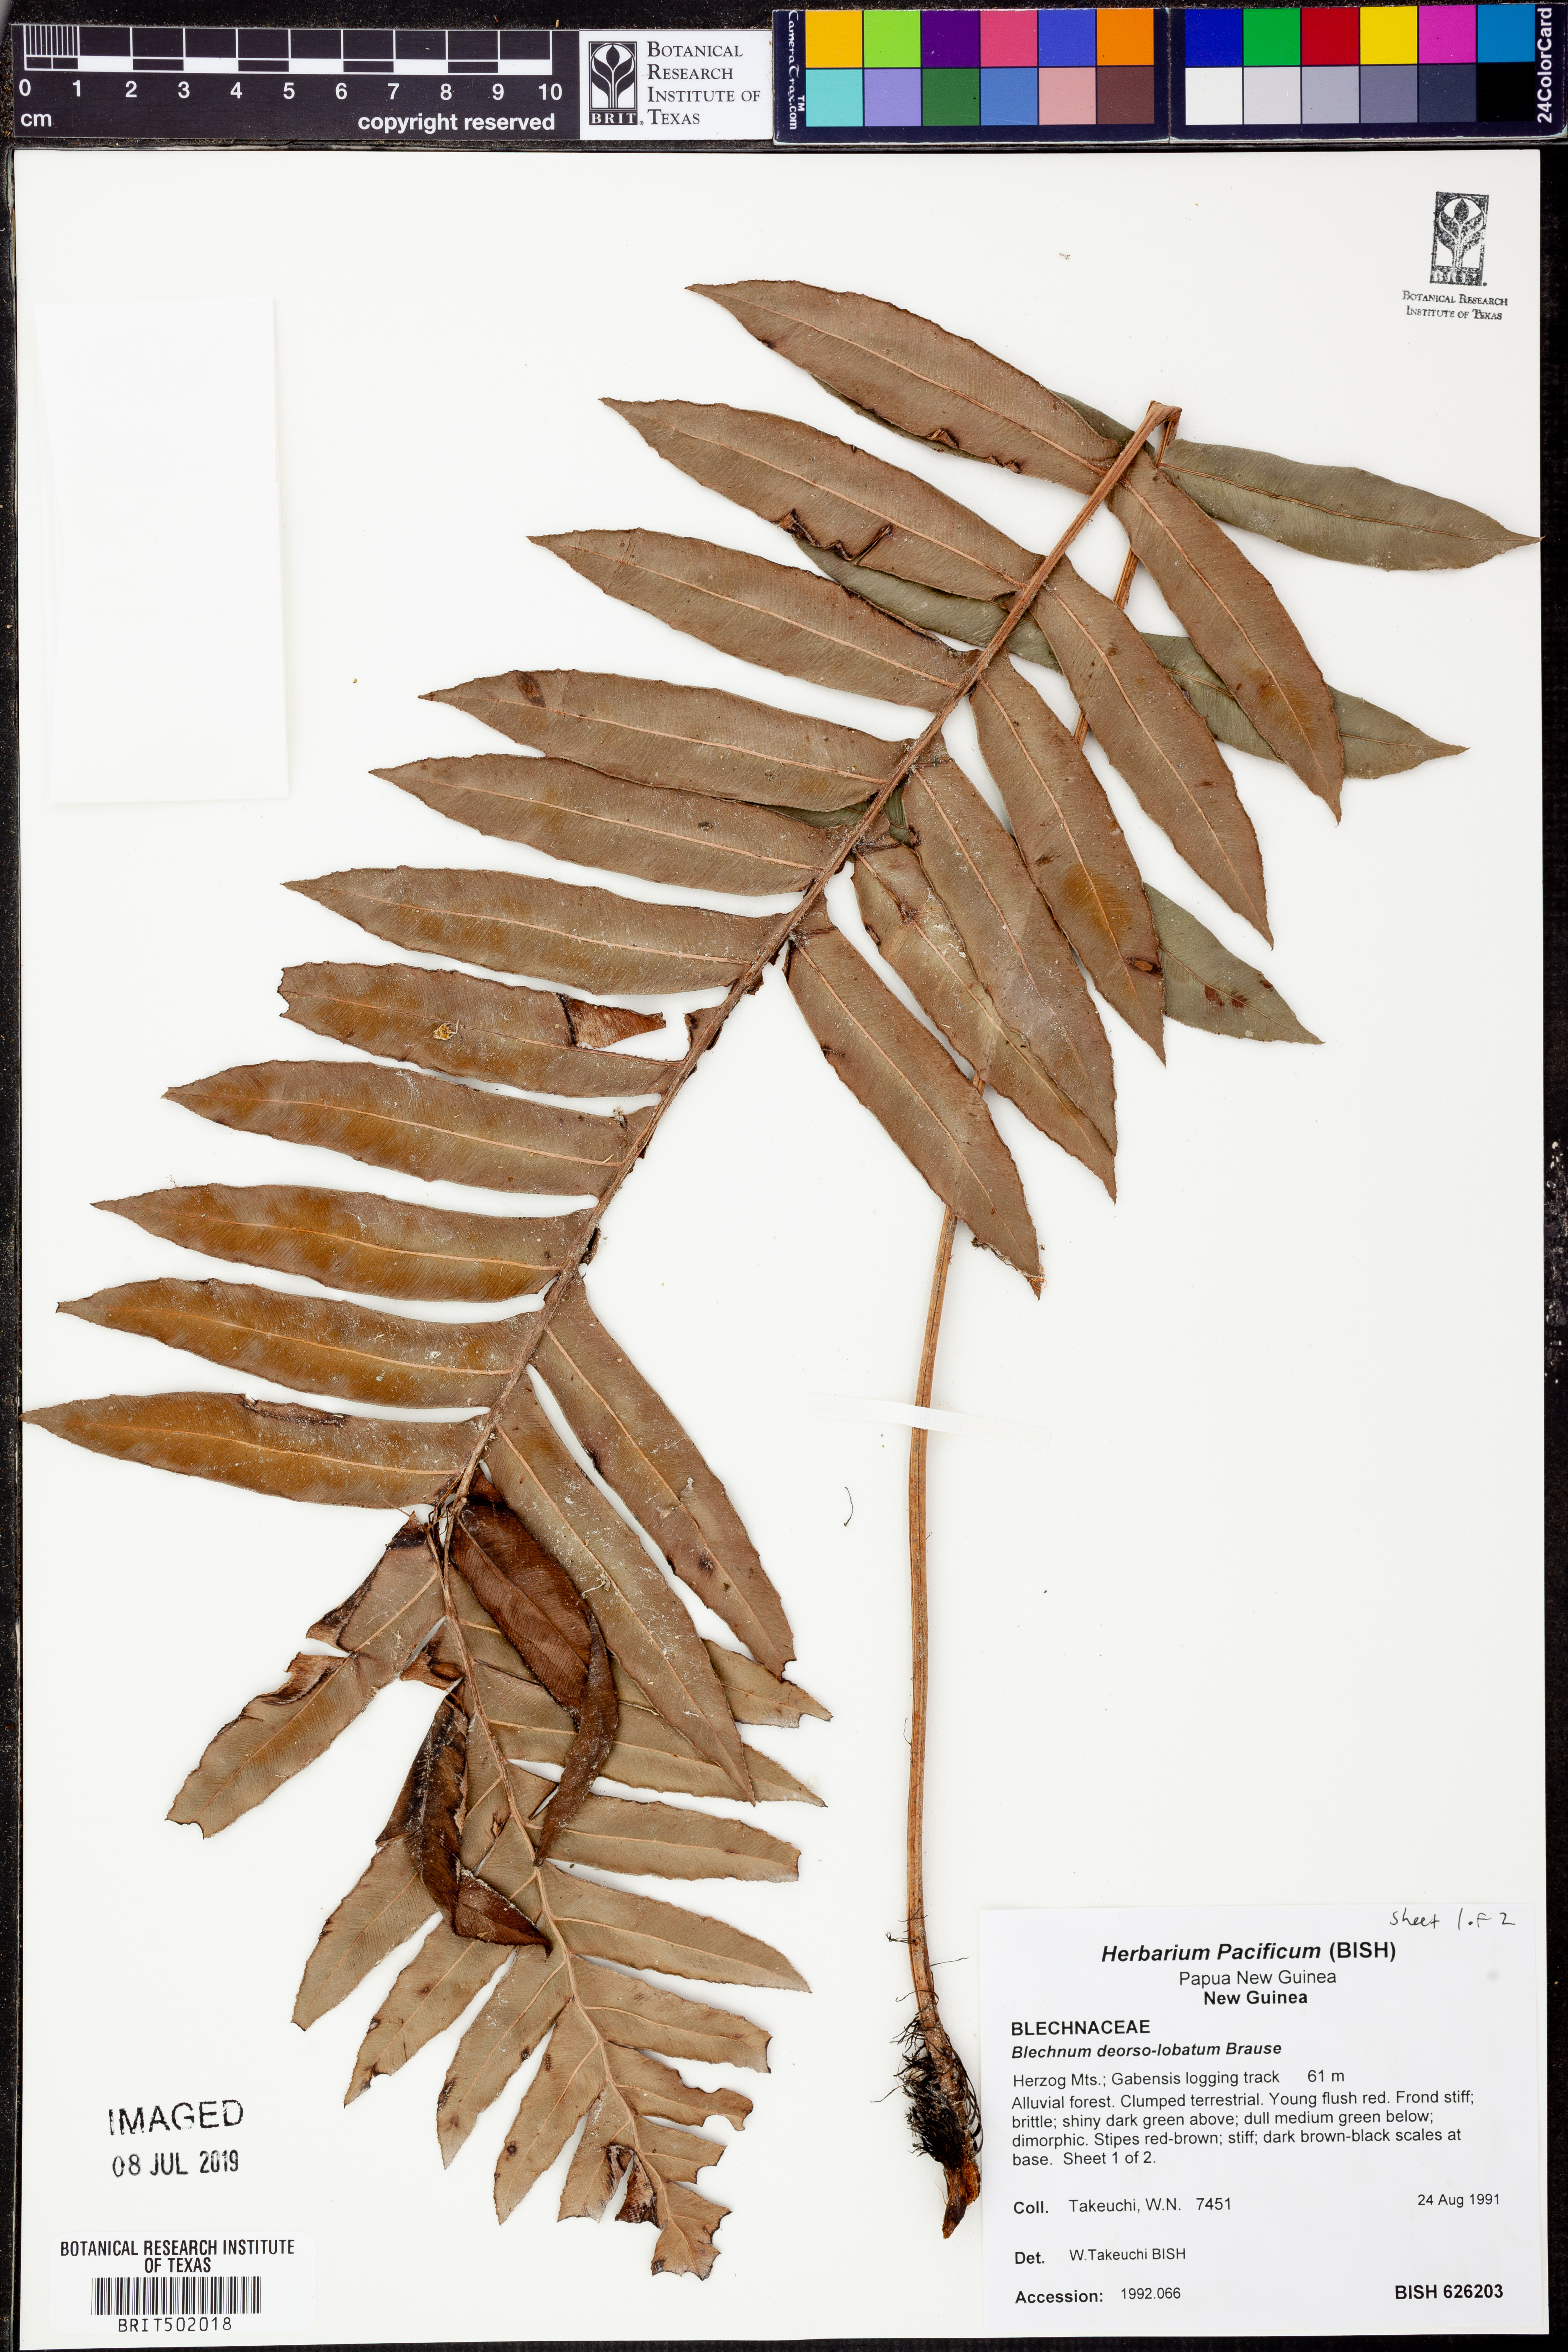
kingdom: Plantae
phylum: Tracheophyta
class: Polypodiopsida
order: Polypodiales
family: Blechnaceae
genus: Austroblechnum
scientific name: Austroblechnum keysseri
